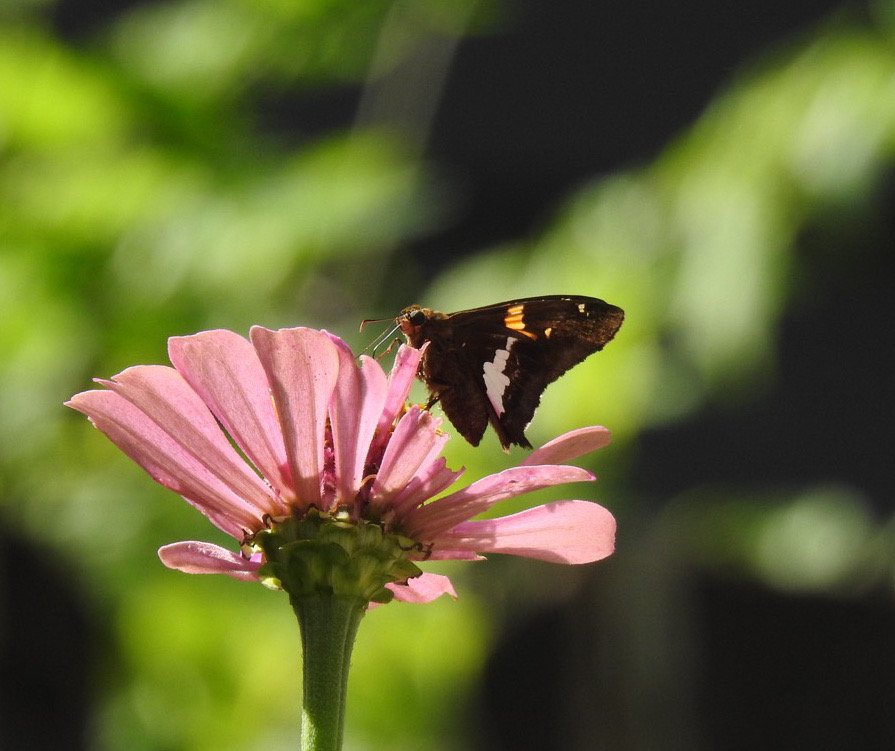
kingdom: Animalia
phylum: Arthropoda
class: Insecta
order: Lepidoptera
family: Hesperiidae
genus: Epargyreus
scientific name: Epargyreus clarus
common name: Silver-spotted Skipper
